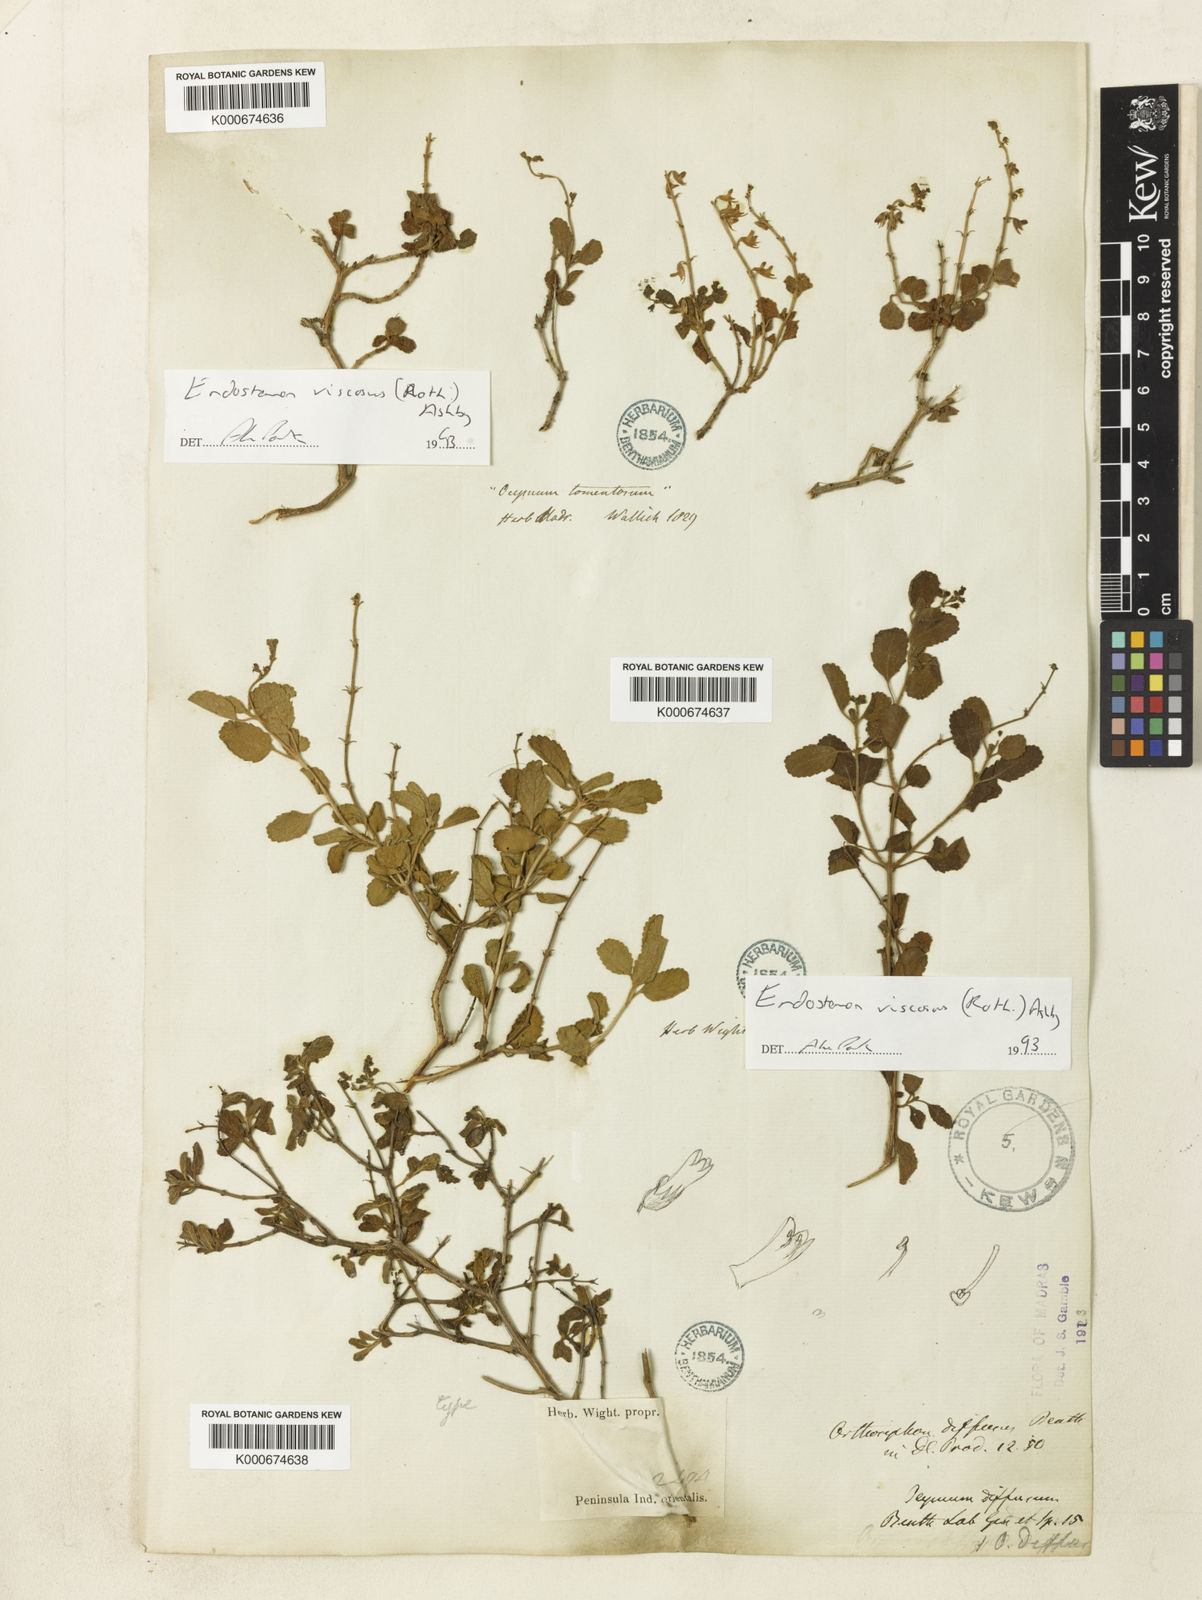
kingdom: Plantae
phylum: Tracheophyta
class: Magnoliopsida
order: Lamiales
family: Lamiaceae
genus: Endostemon
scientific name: Endostemon viscosus
